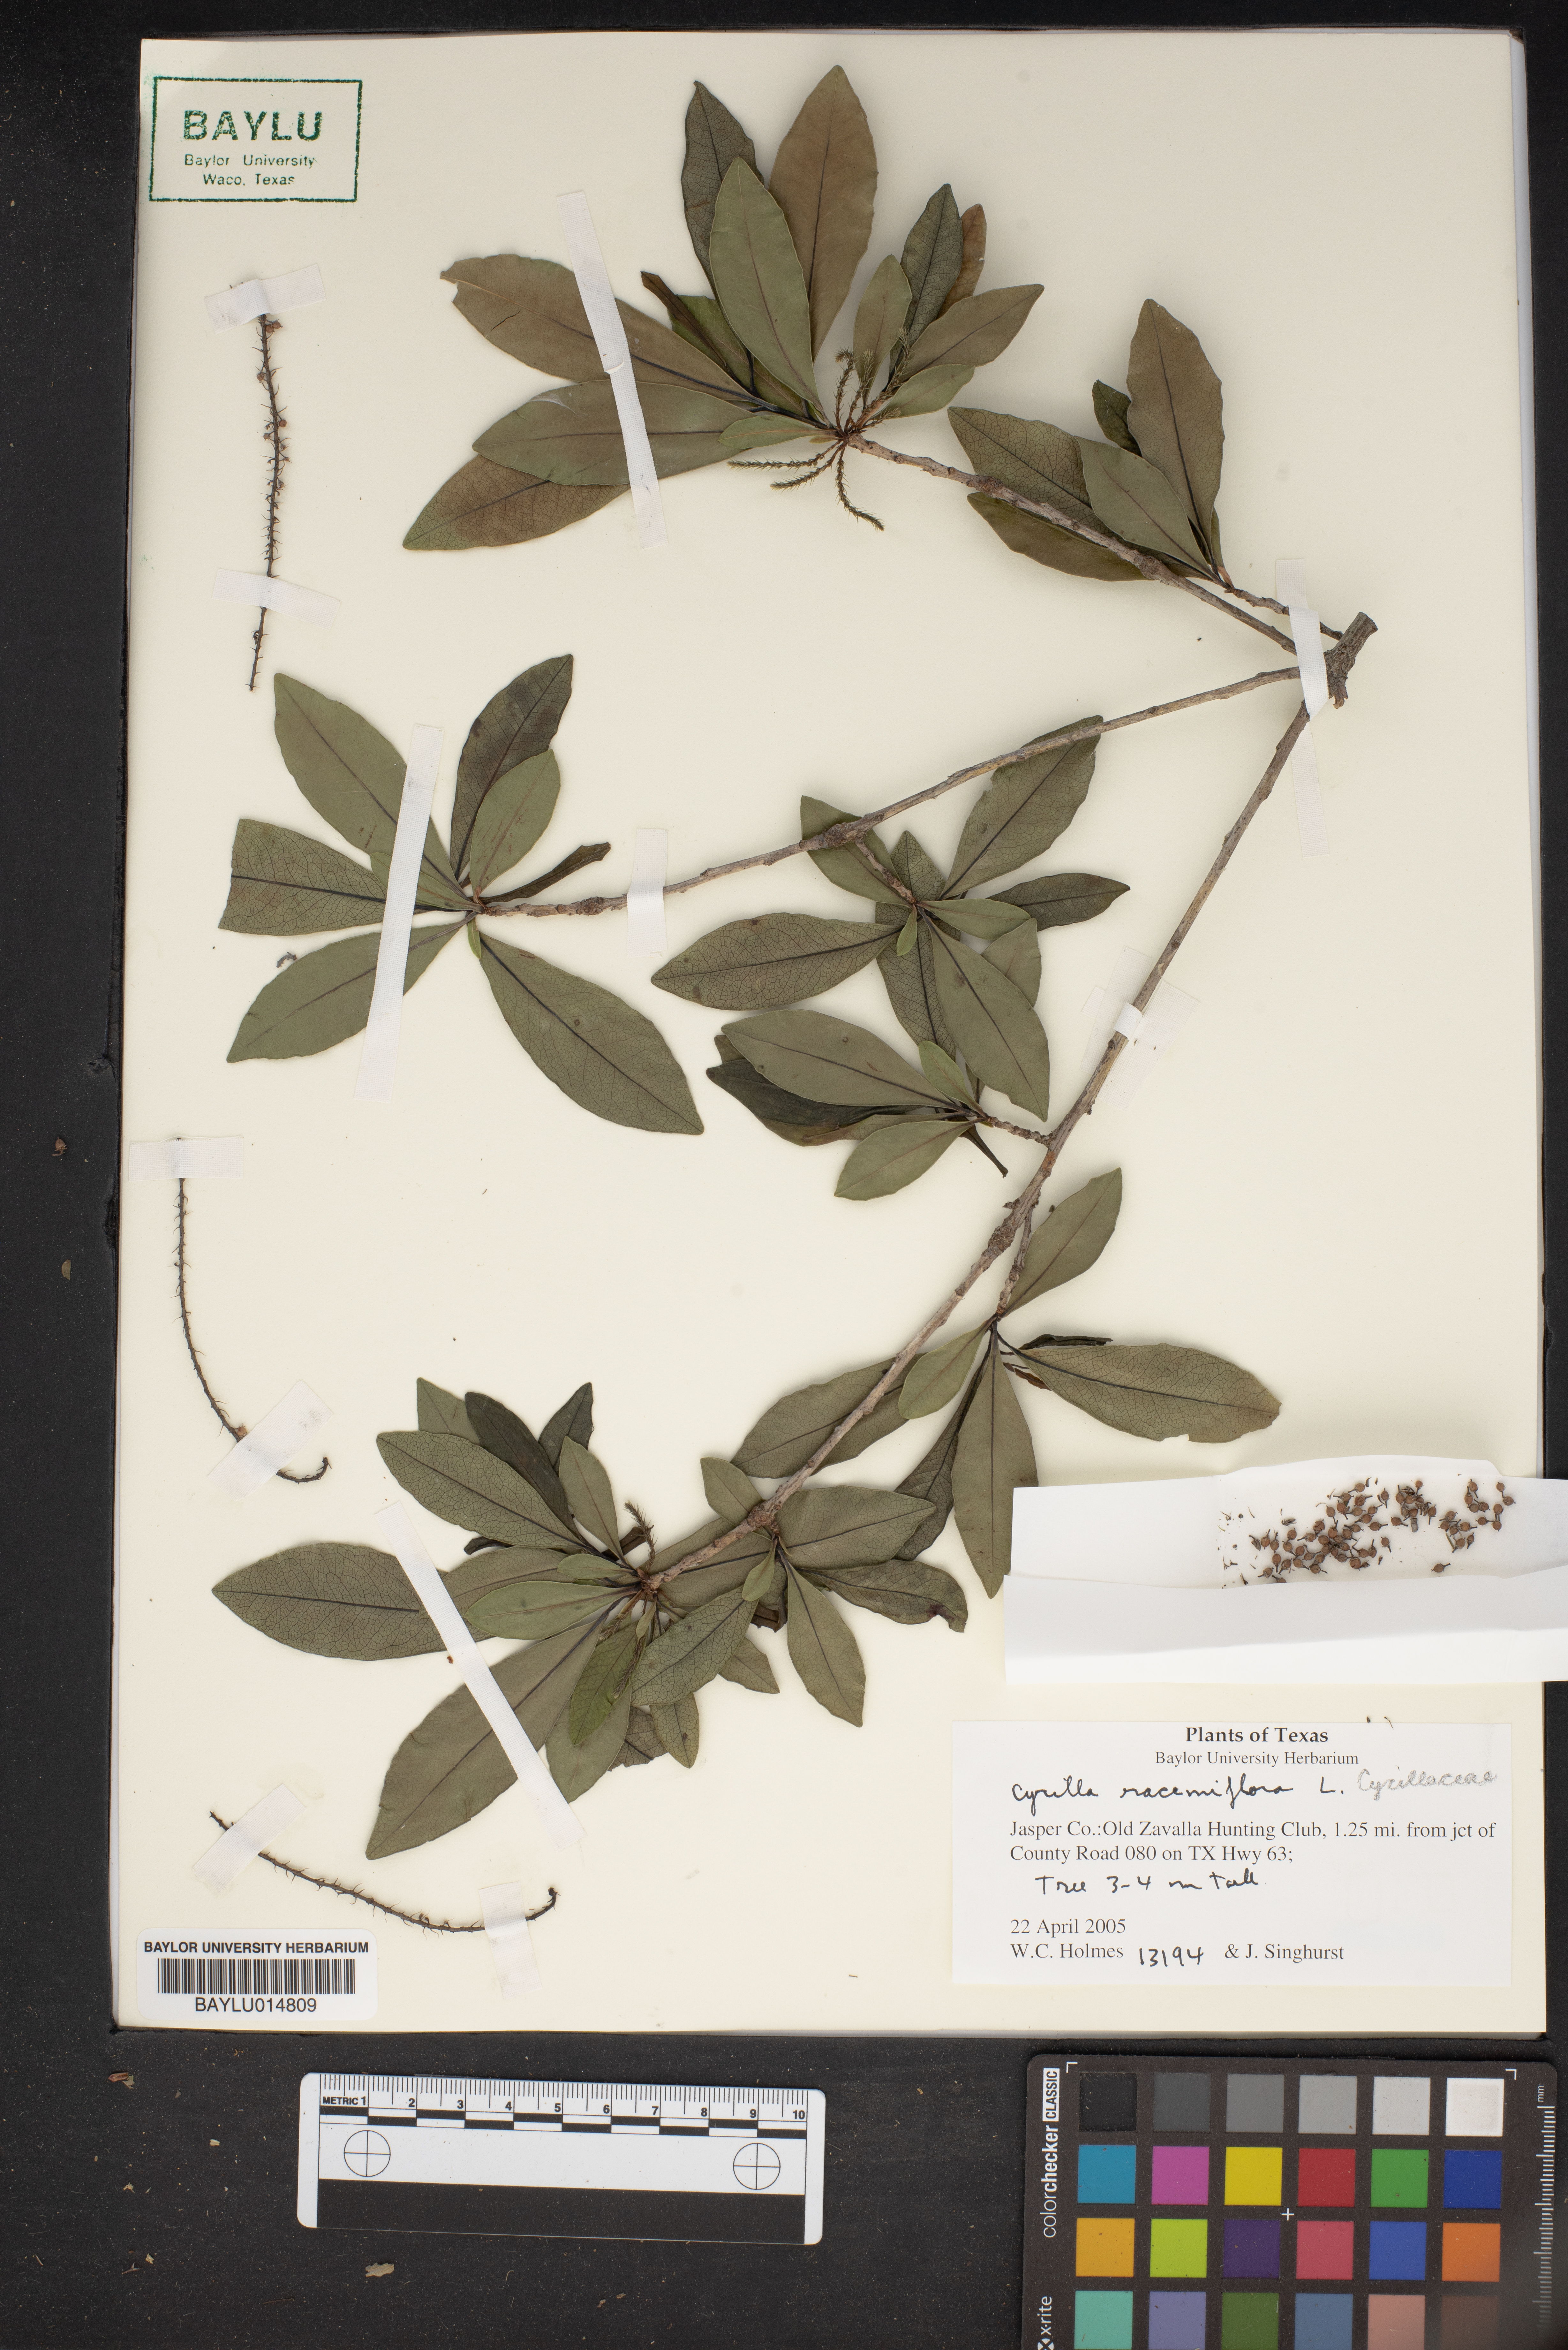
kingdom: Plantae
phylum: Tracheophyta
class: Magnoliopsida
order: Ericales
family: Cyrillaceae
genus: Cyrilla
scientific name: Cyrilla racemiflora
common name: Black titi
